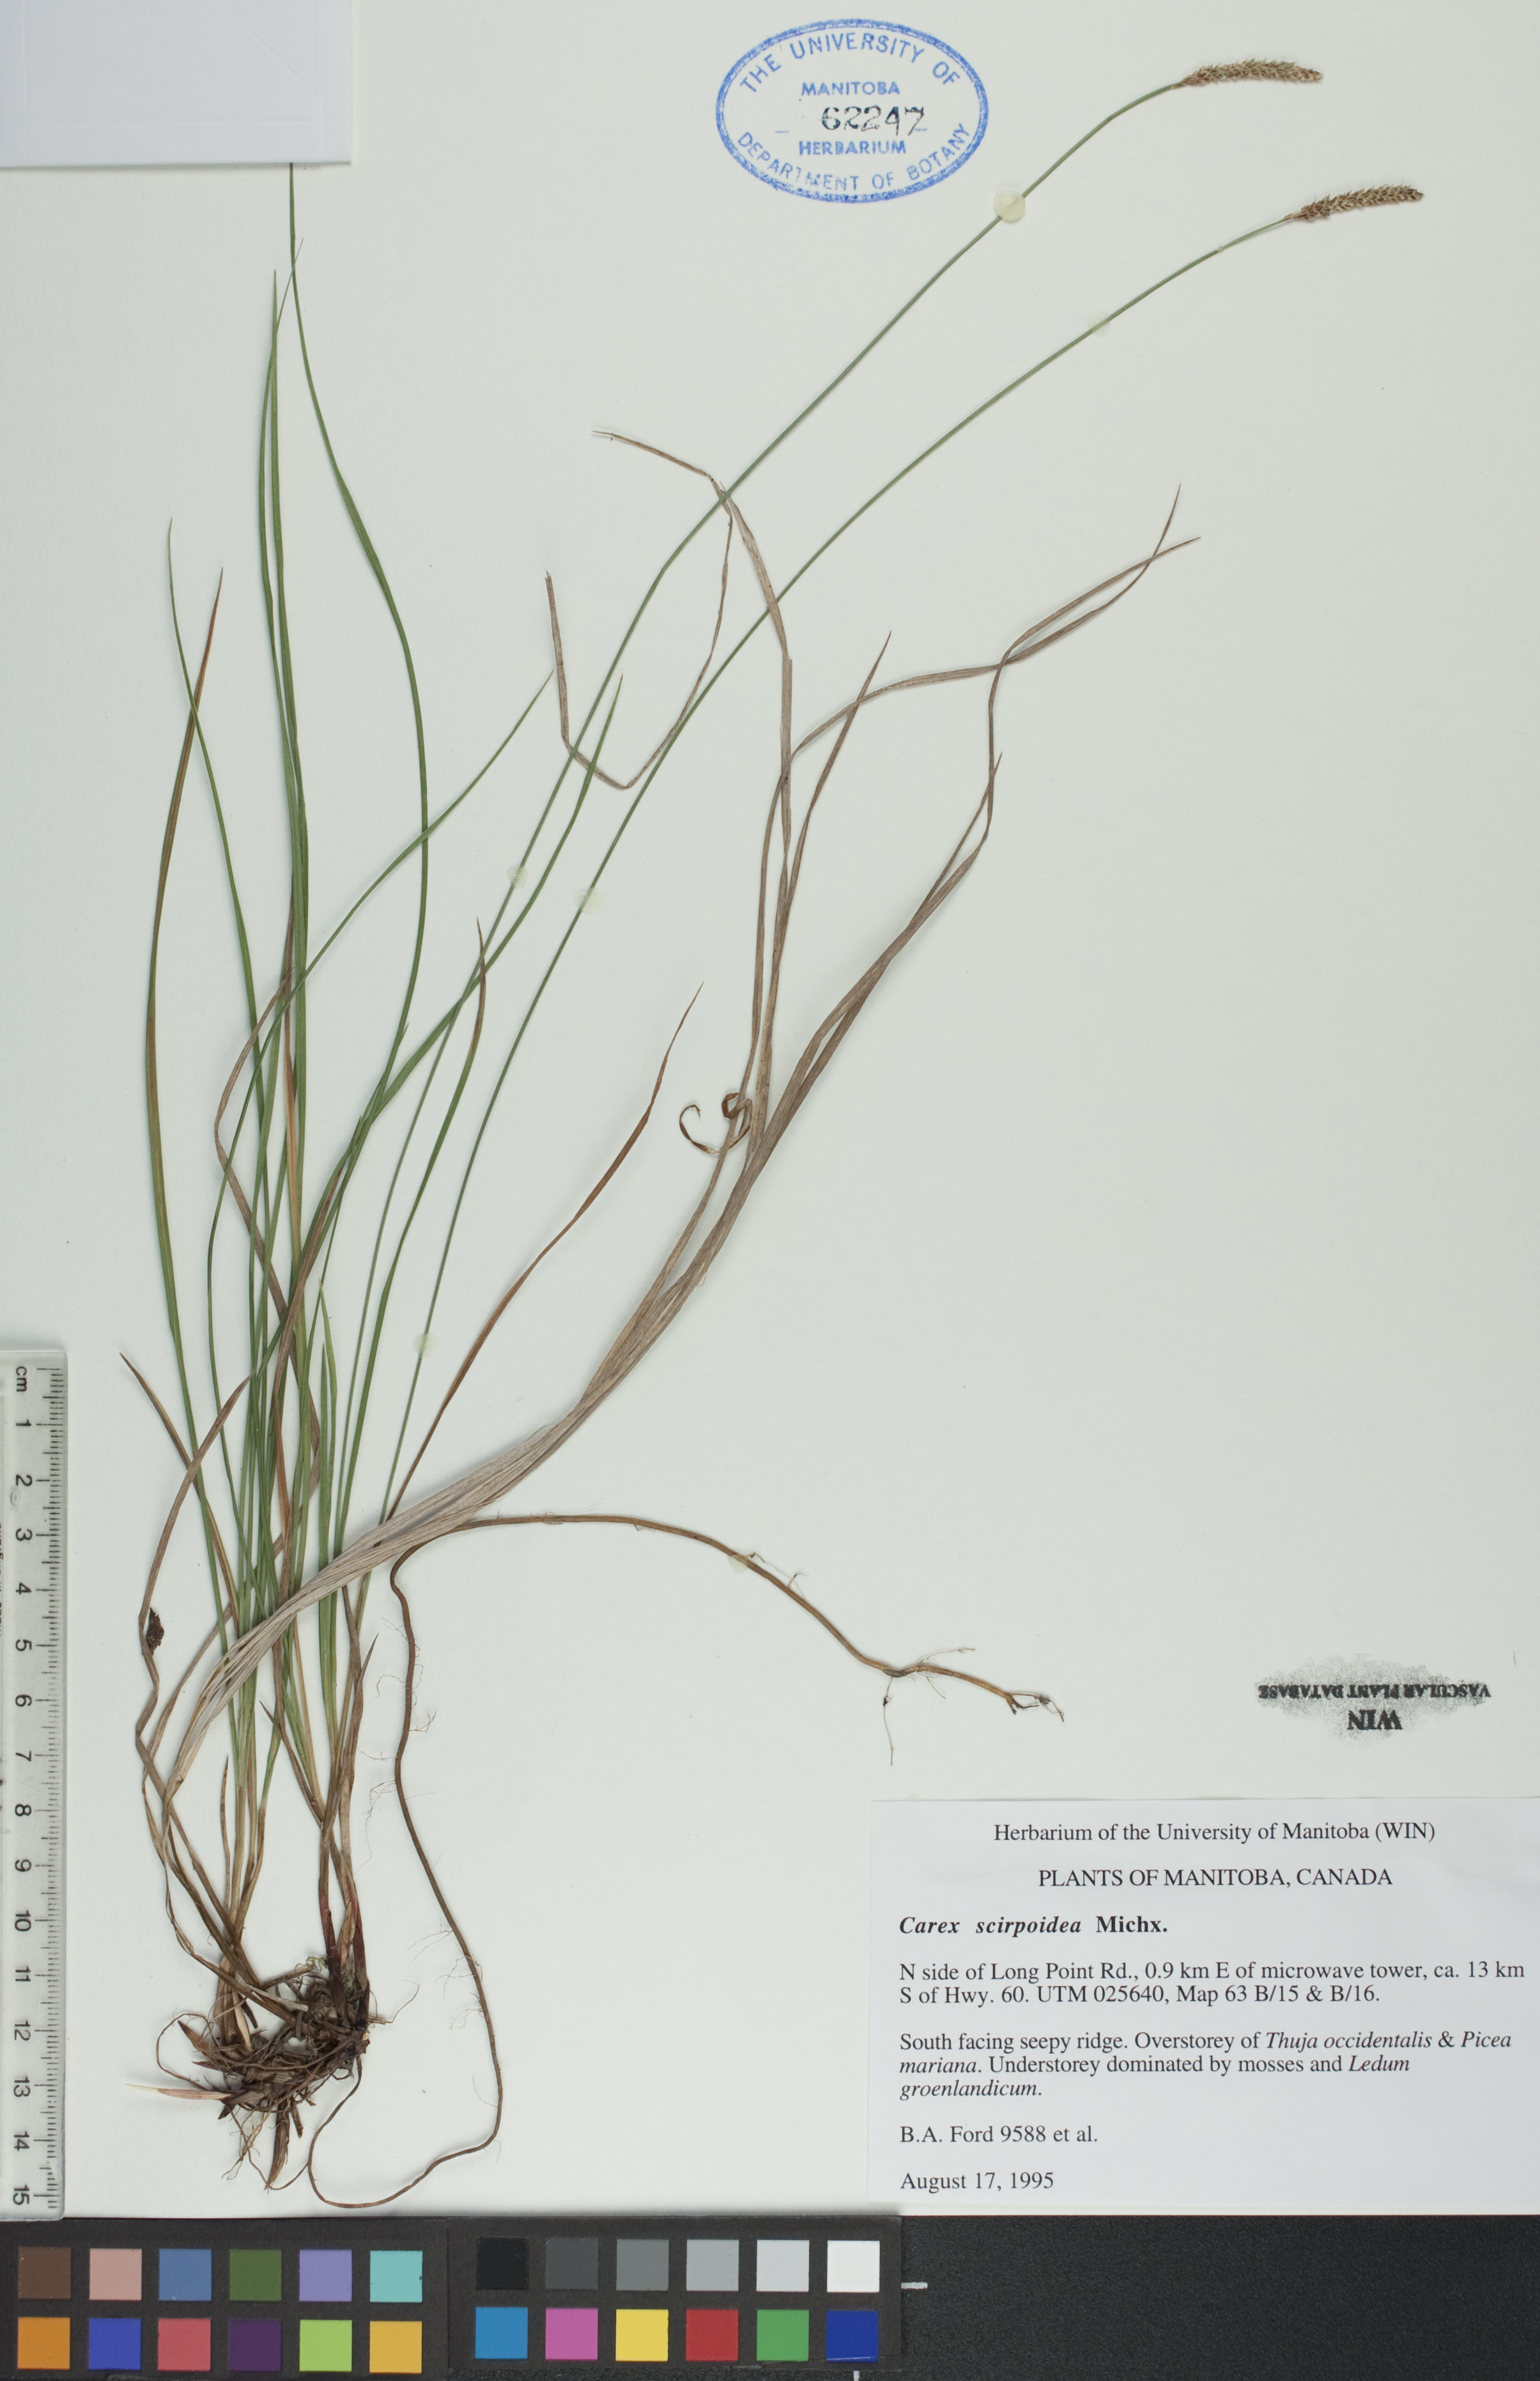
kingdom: Plantae
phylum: Tracheophyta
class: Liliopsida
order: Poales
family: Cyperaceae
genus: Carex
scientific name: Carex scirpoidea
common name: Canada single-spike sedge
